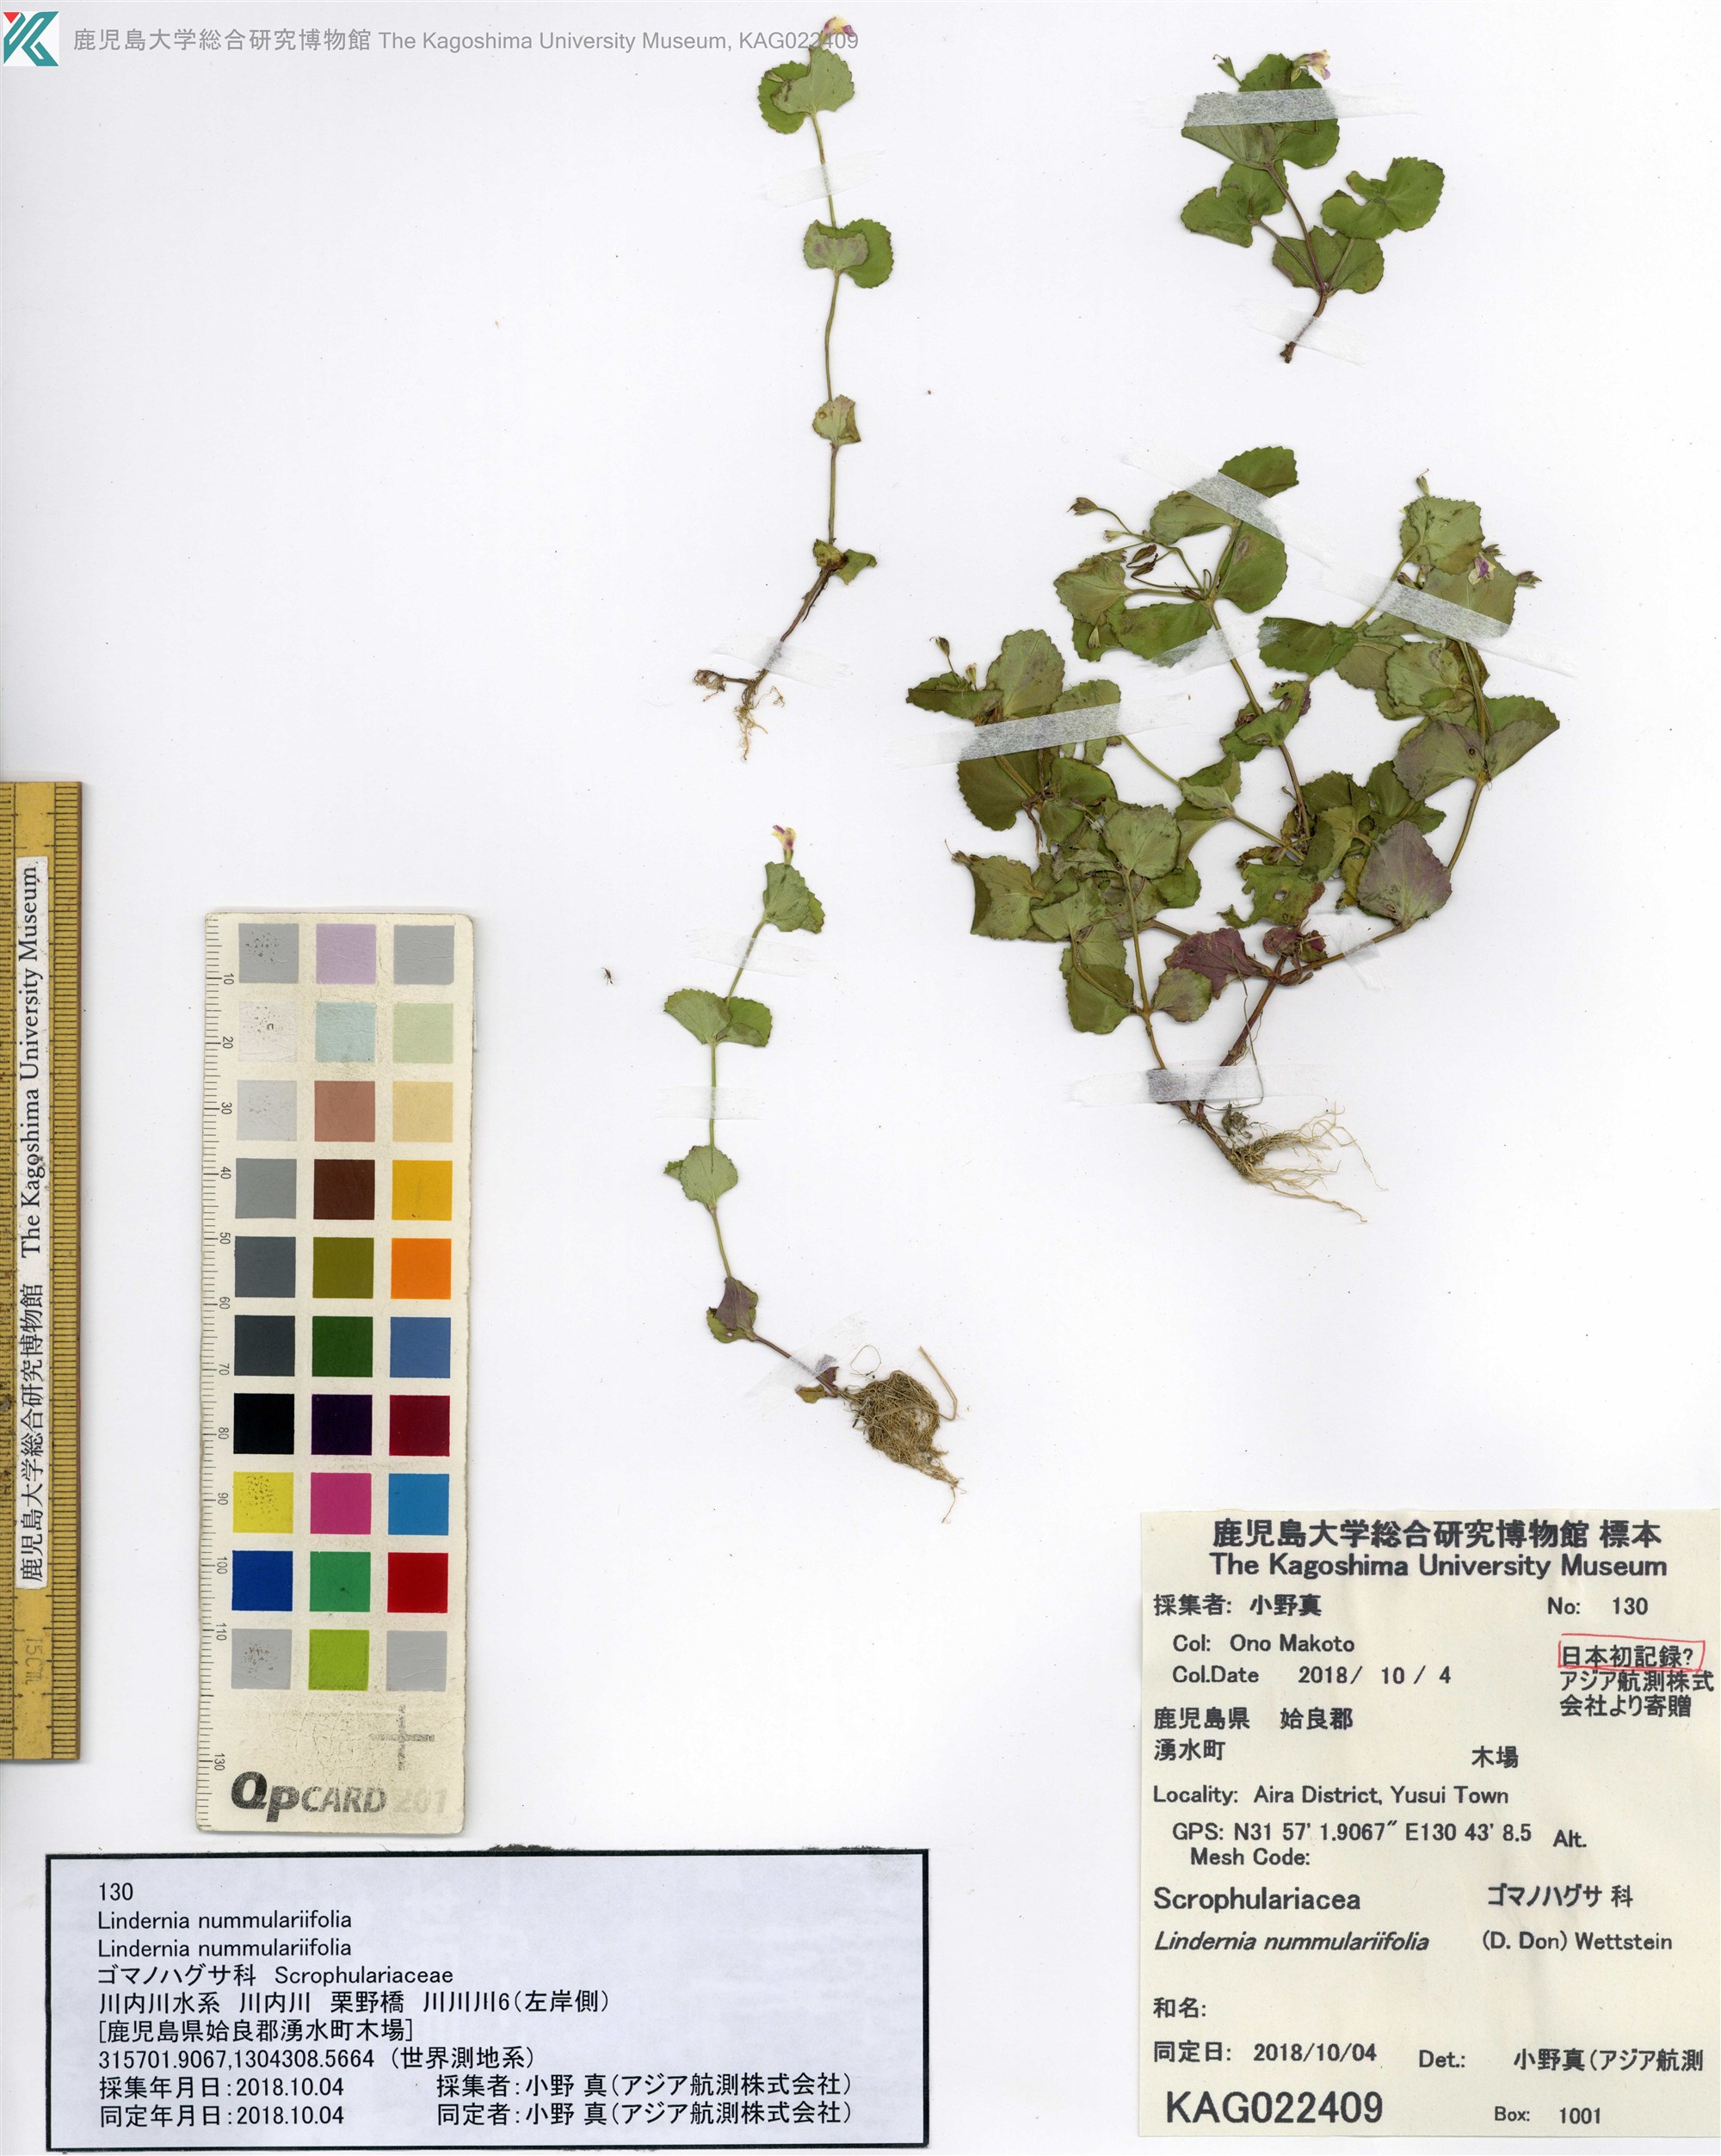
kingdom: Plantae
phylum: Tracheophyta
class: Magnoliopsida
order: Lamiales
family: Linderniaceae
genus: Craterostigma
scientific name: Craterostigma nummulariifolium
